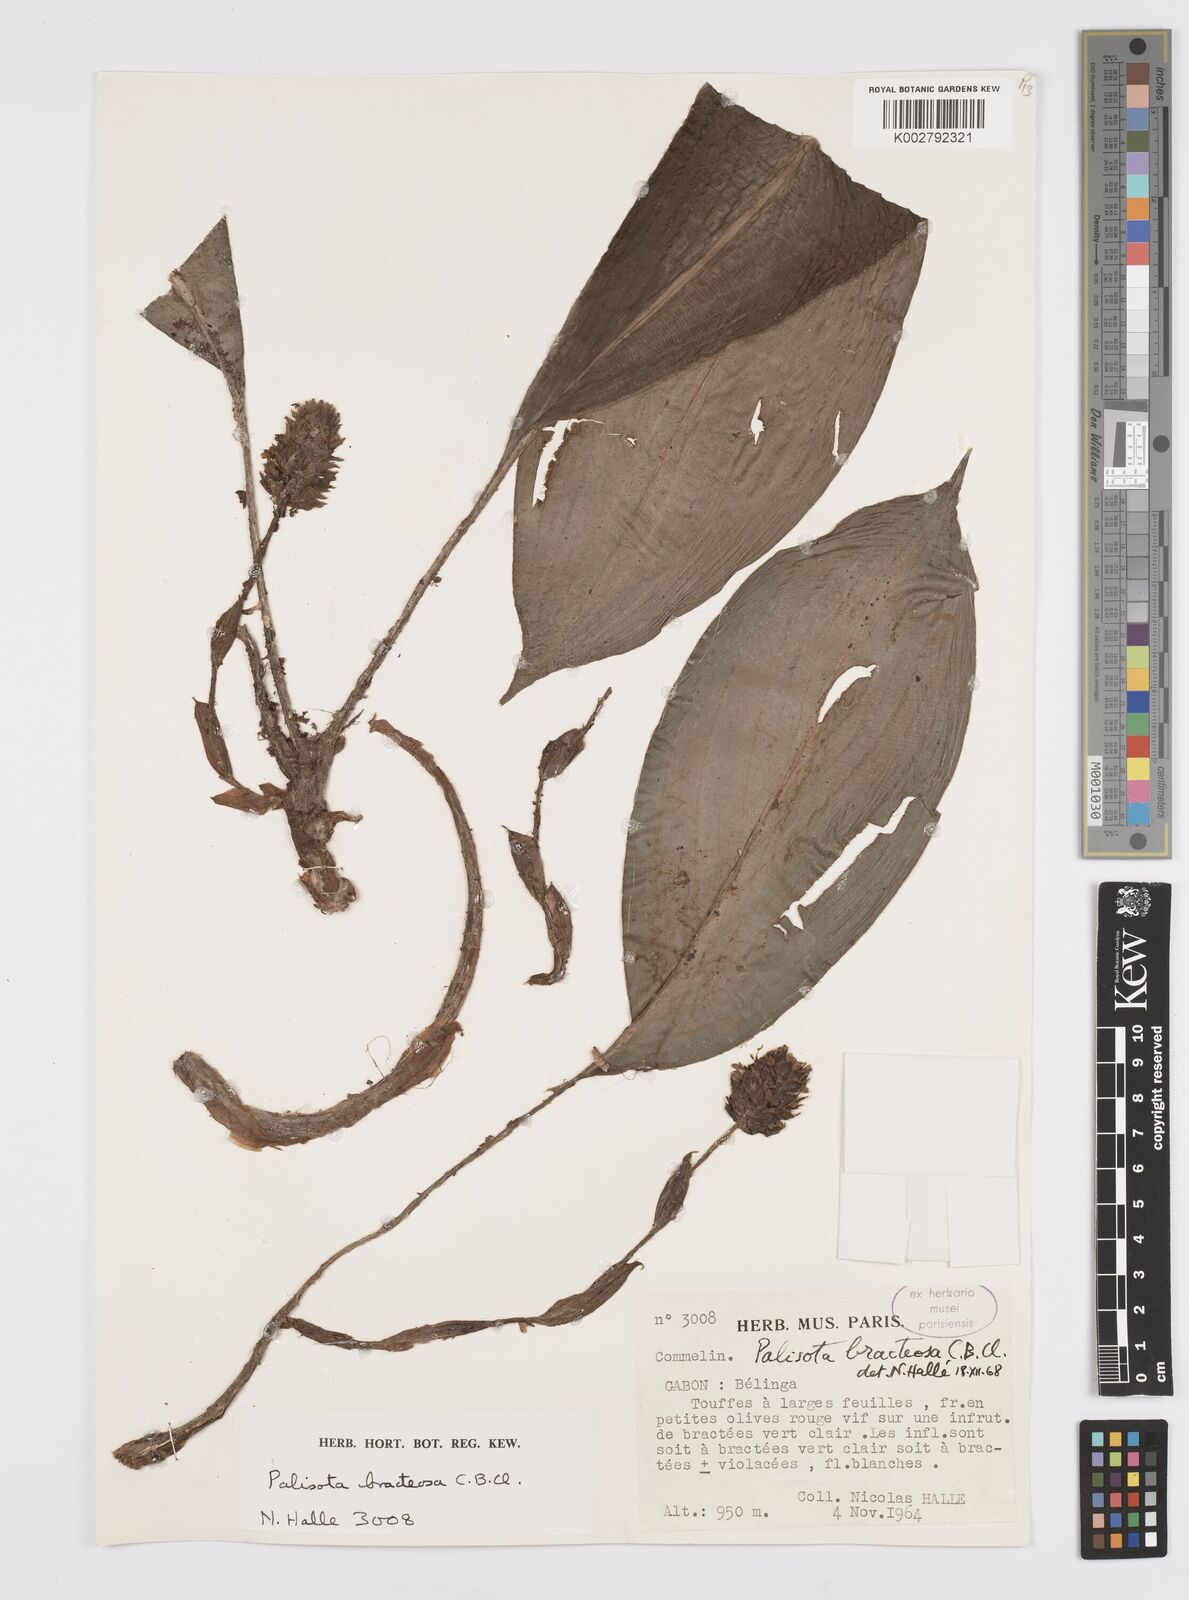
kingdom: Plantae
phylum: Tracheophyta
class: Liliopsida
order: Commelinales
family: Commelinaceae
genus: Palisota
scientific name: Palisota bracteosa
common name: Palisota
